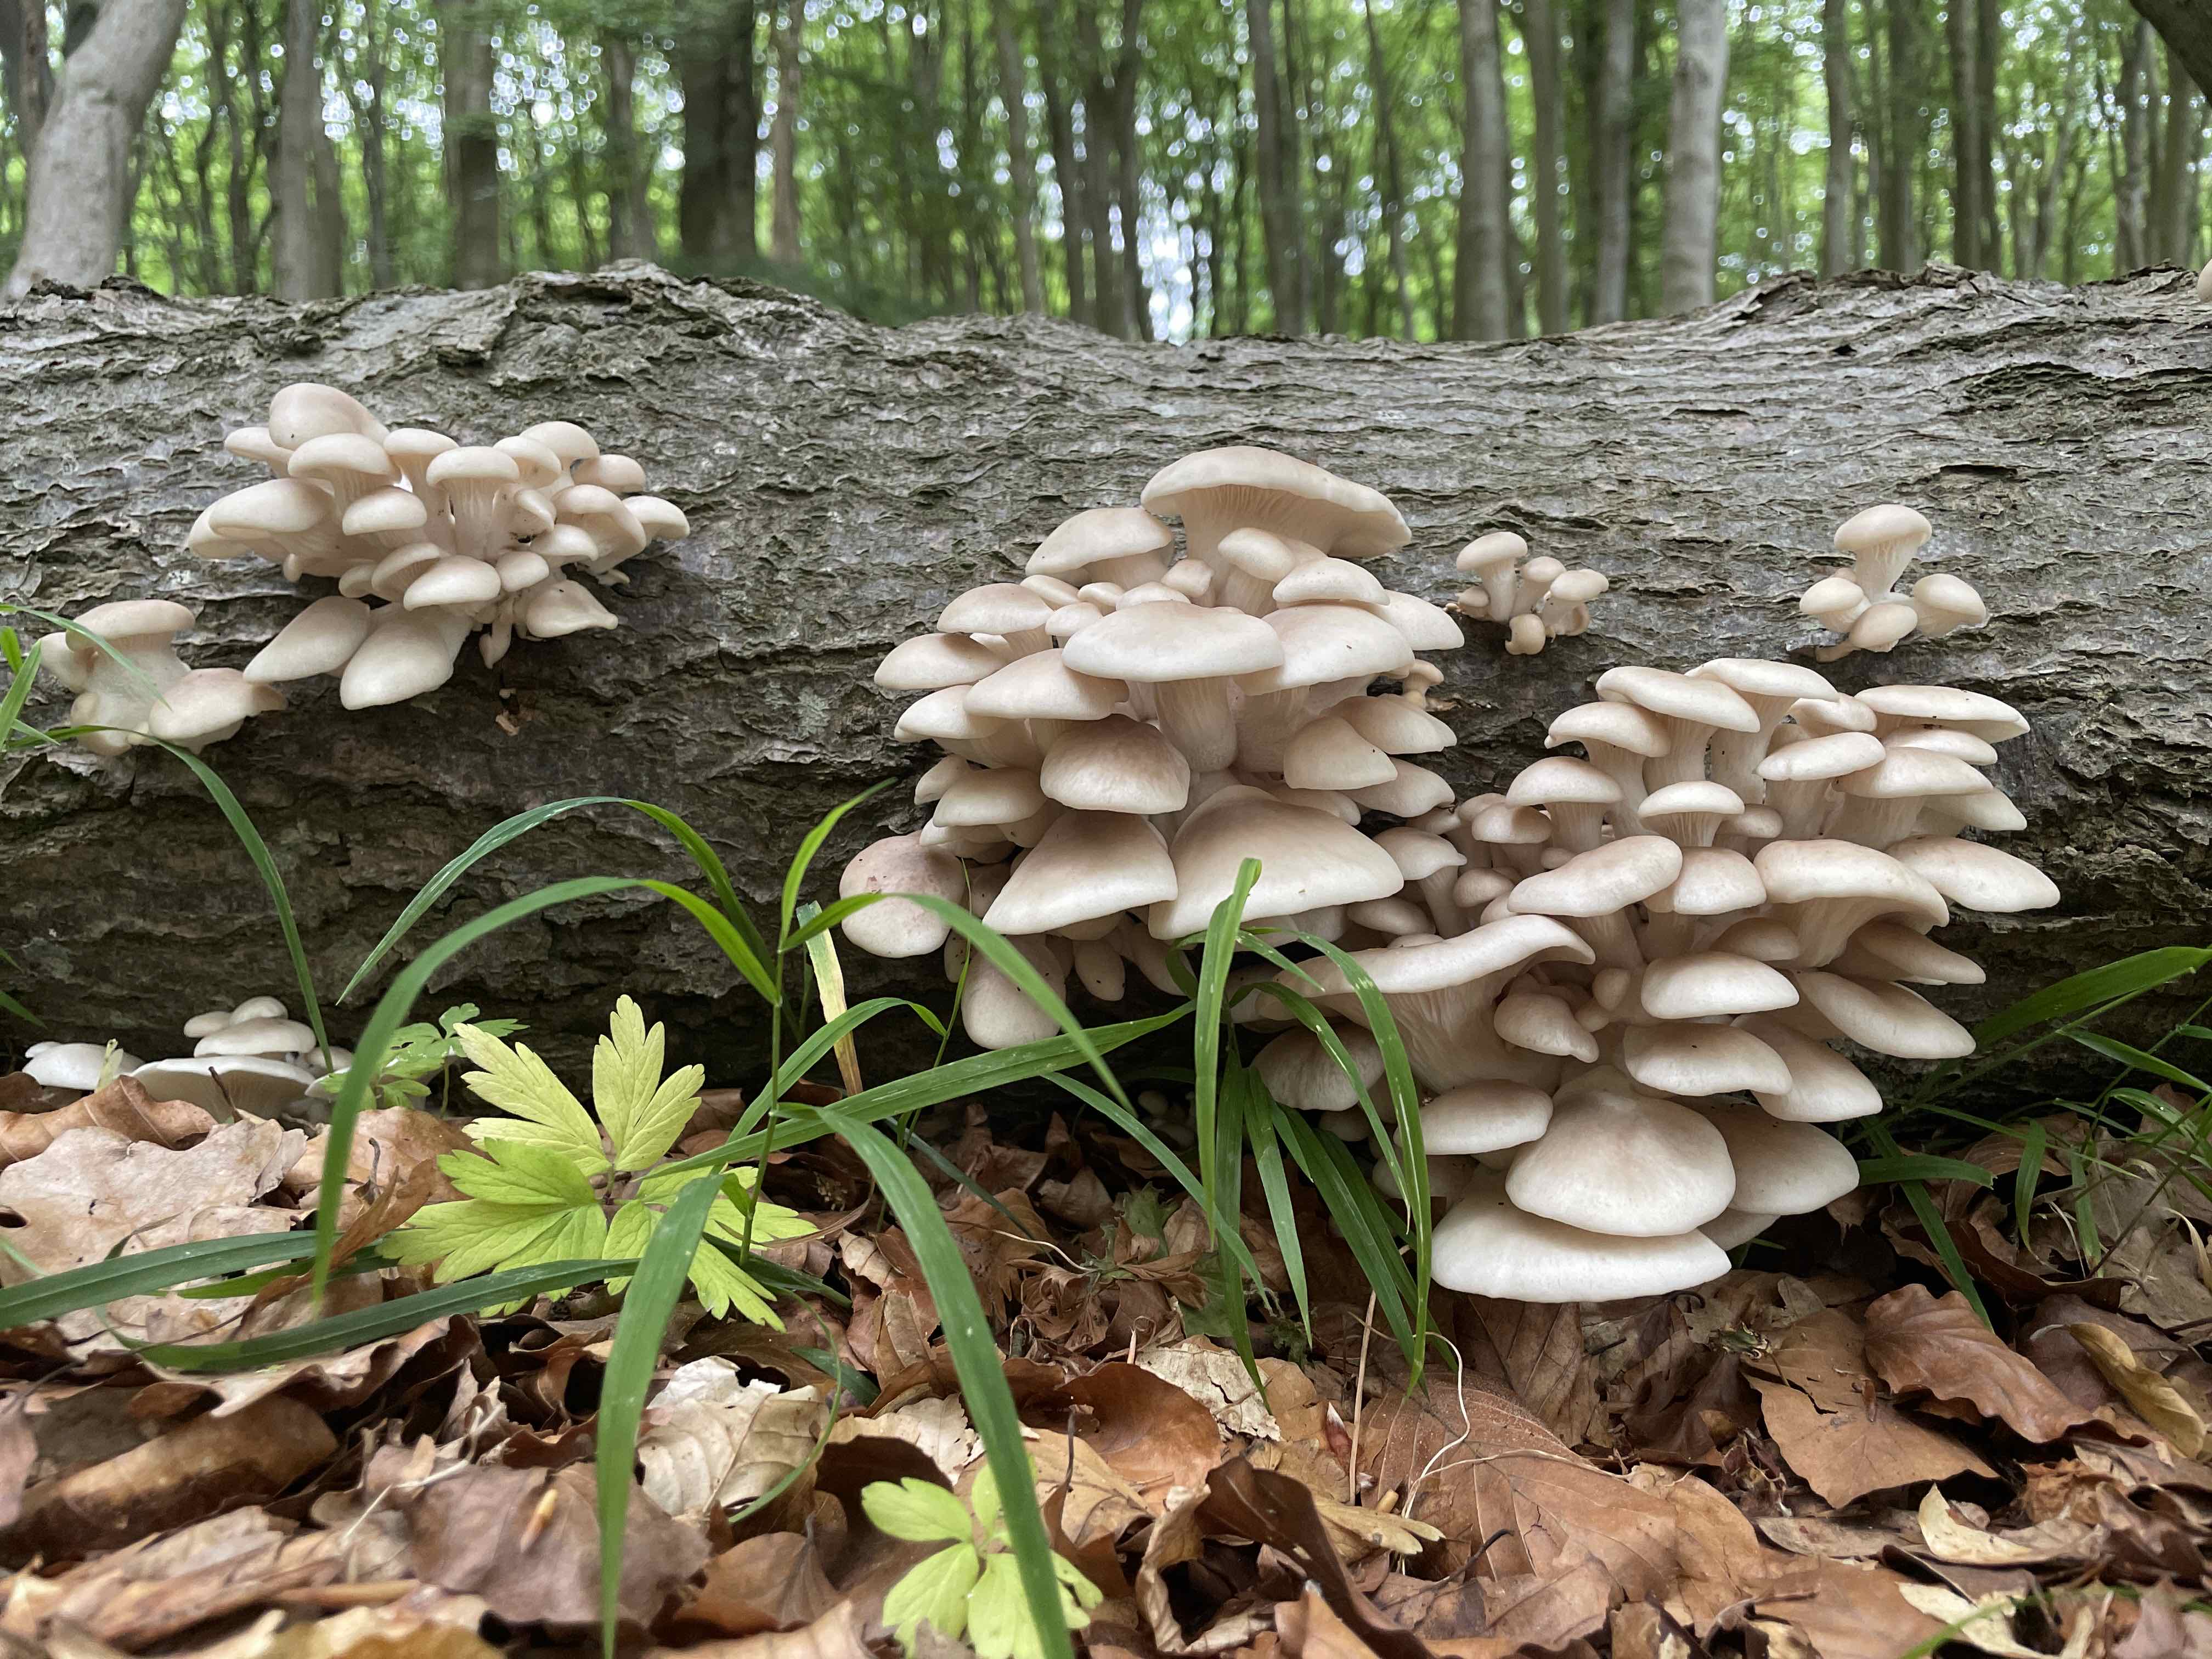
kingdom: Fungi
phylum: Basidiomycota
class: Agaricomycetes
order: Agaricales
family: Pleurotaceae
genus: Pleurotus
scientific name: Pleurotus pulmonarius
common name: sommer-østershat
